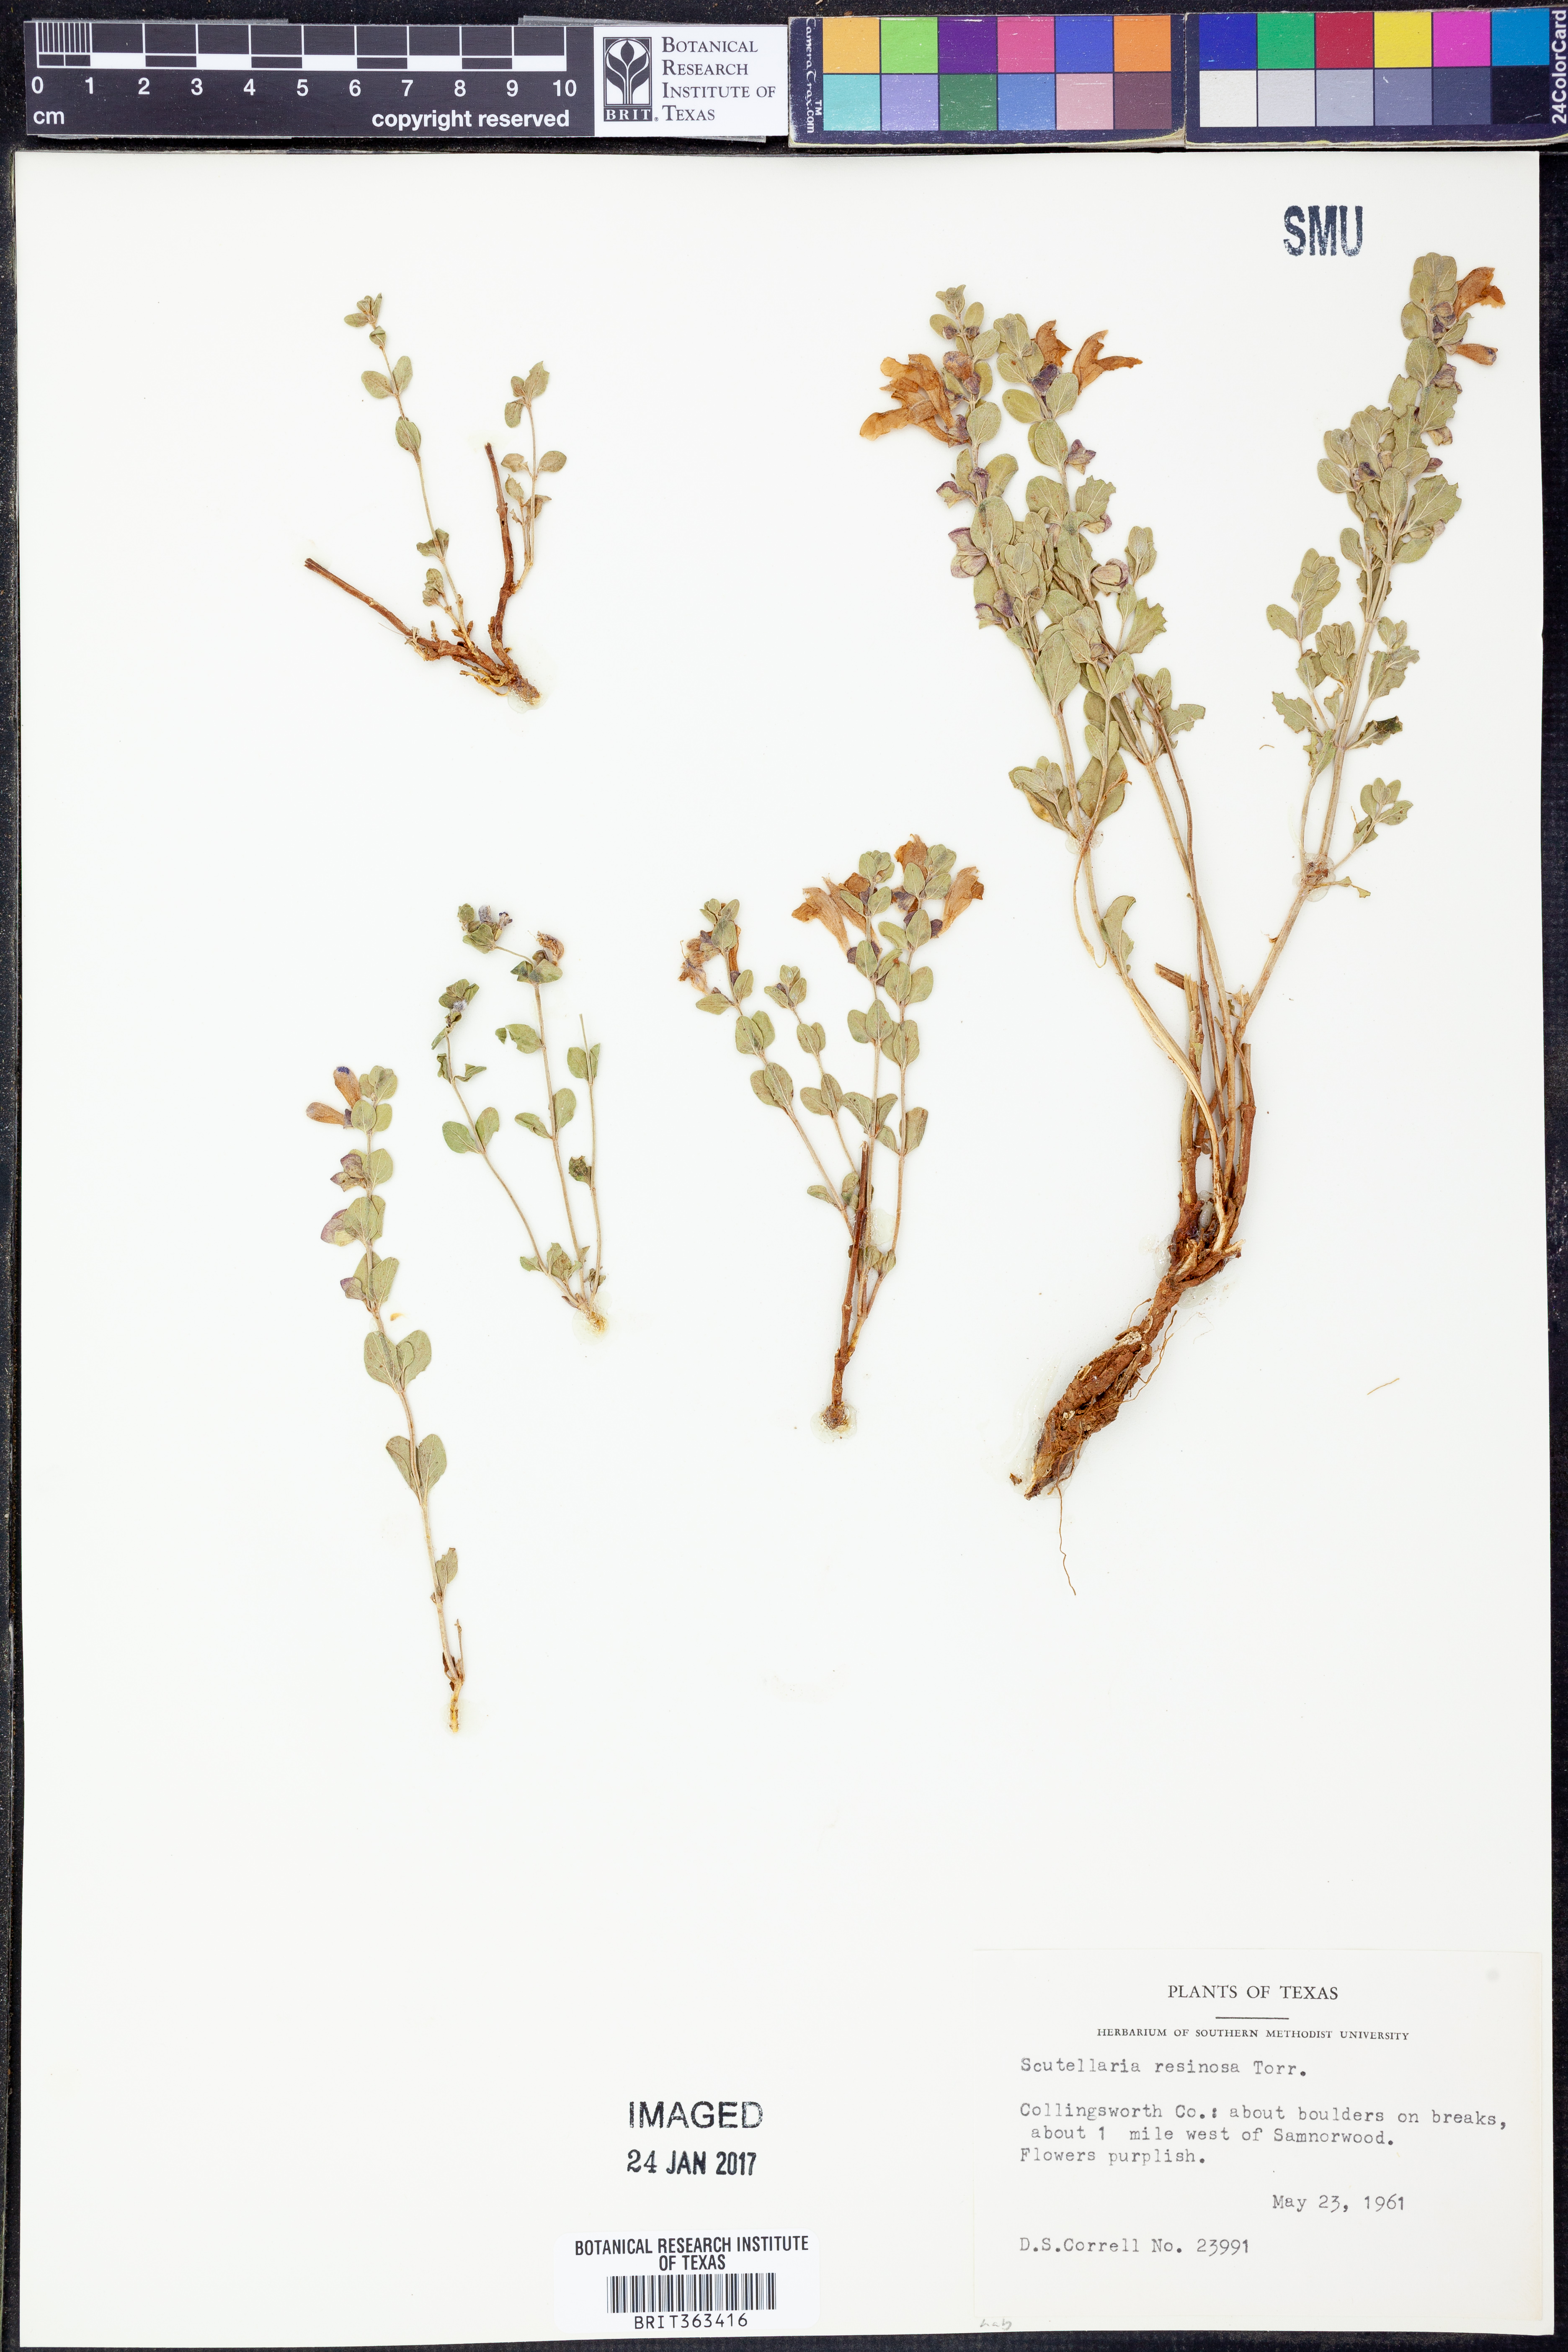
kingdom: Plantae
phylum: Tracheophyta
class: Magnoliopsida
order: Lamiales
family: Lamiaceae
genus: Scutellaria
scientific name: Scutellaria resinosa
